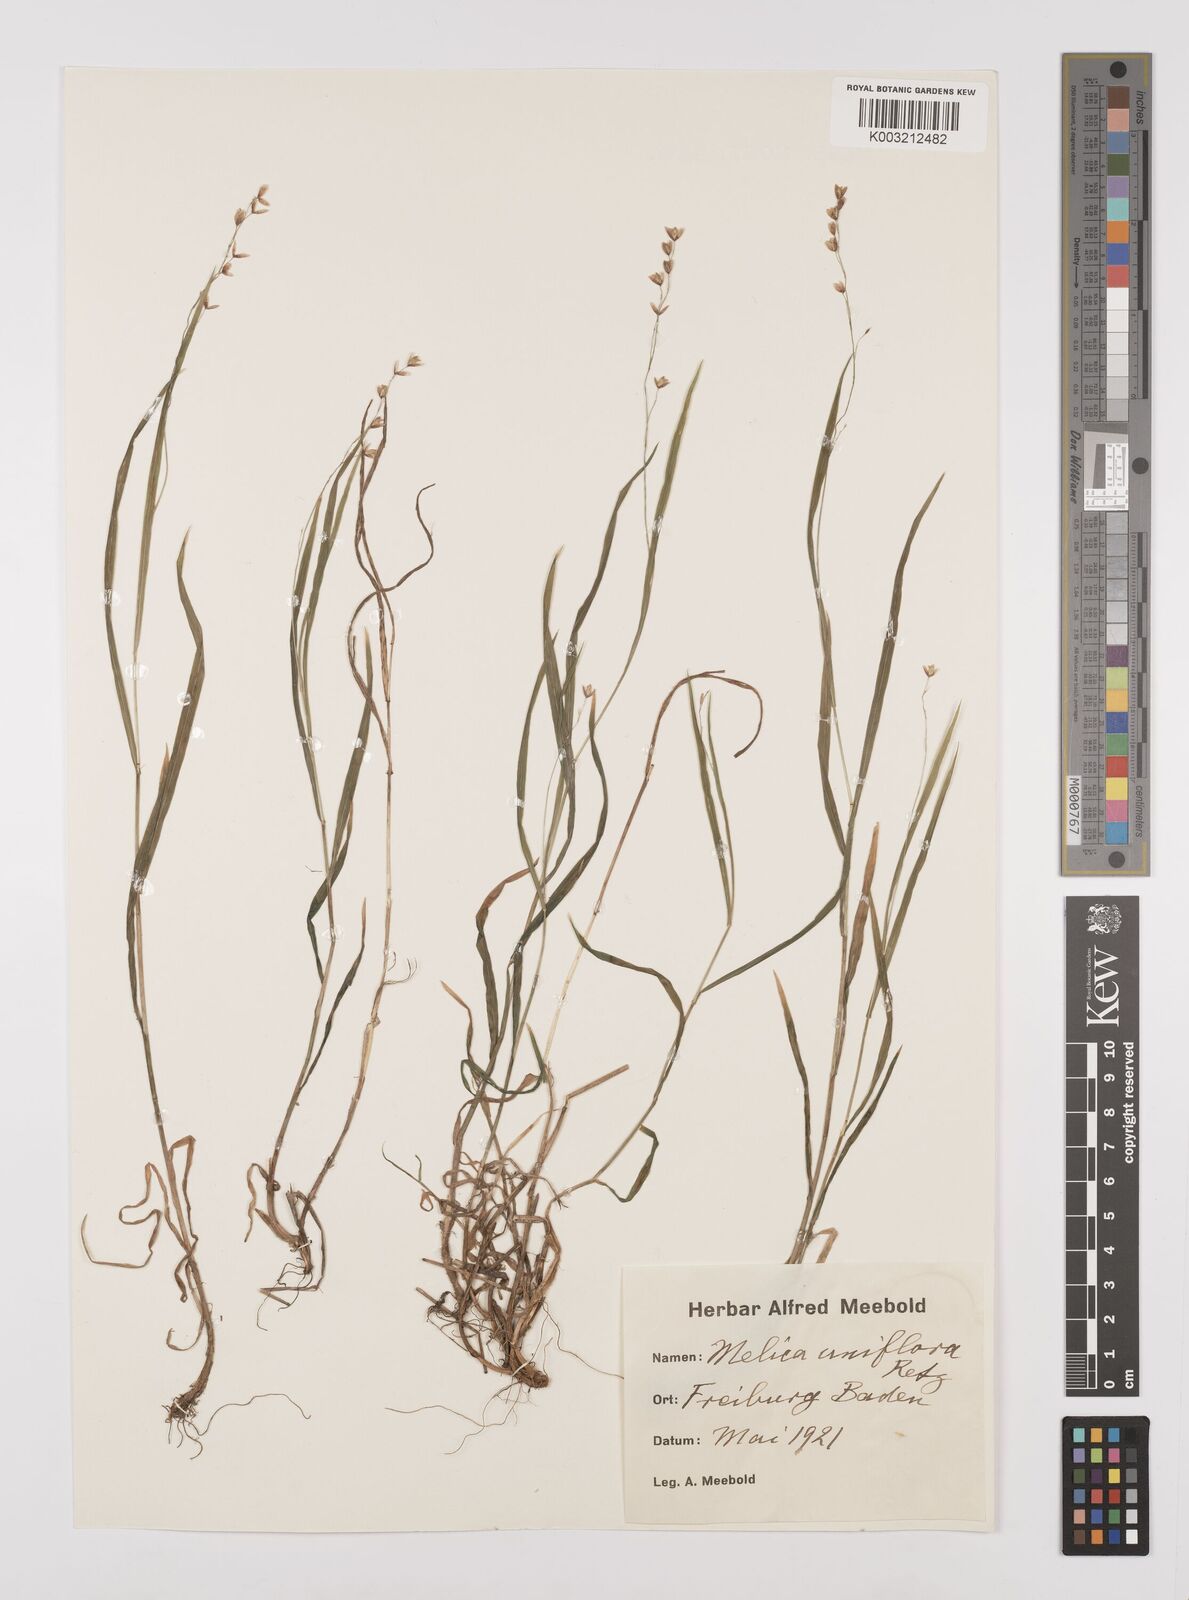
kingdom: Plantae
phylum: Tracheophyta
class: Liliopsida
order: Poales
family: Poaceae
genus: Melica
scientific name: Melica uniflora
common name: Wood melick
